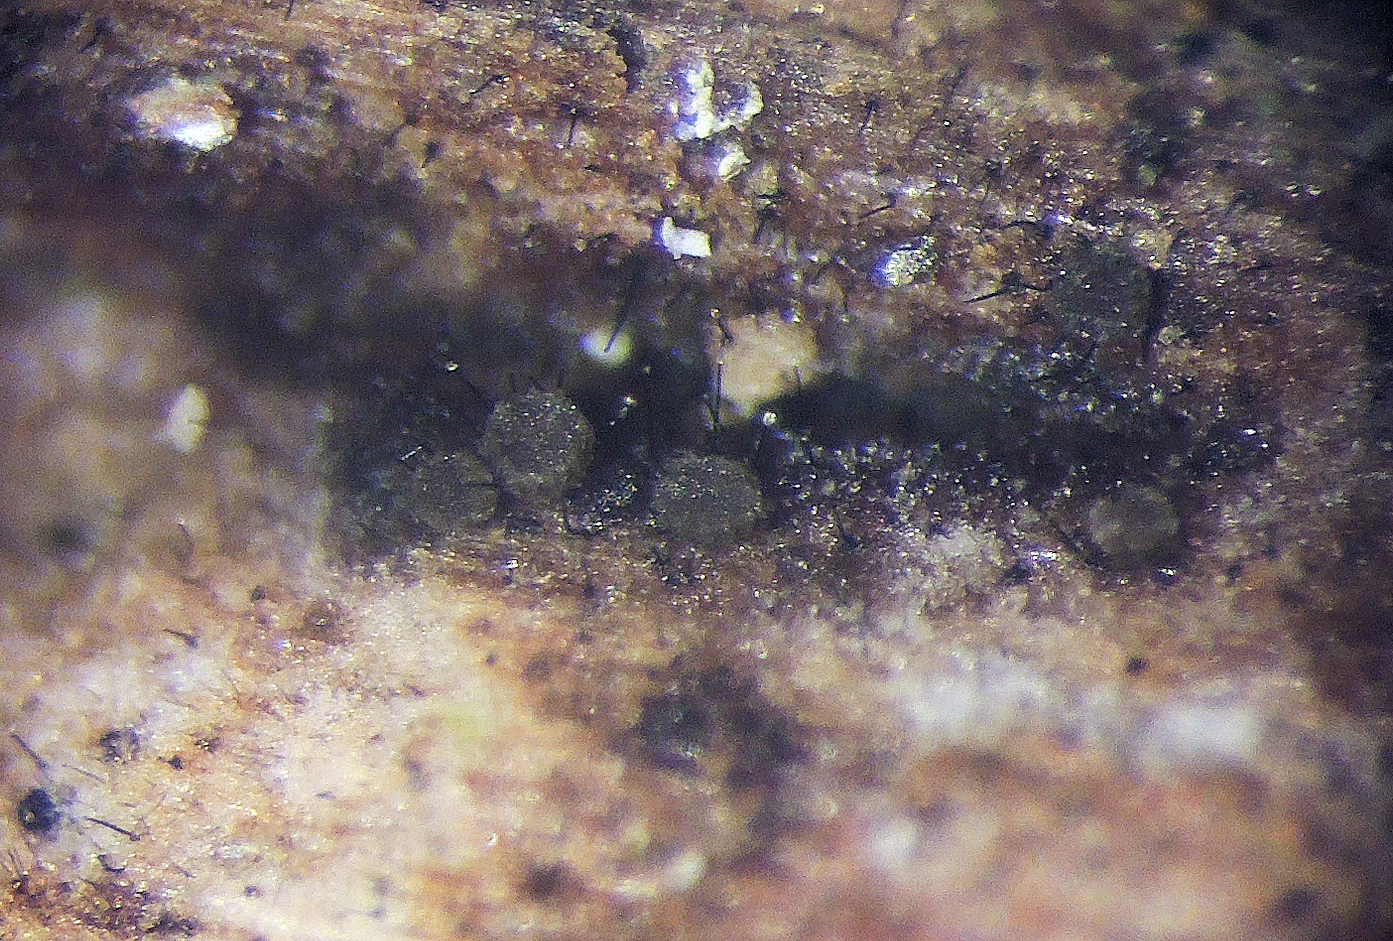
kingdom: Fungi
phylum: Ascomycota
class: Leotiomycetes
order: Helotiales
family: Hyaloscyphaceae
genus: Dematioscypha
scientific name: Dematioscypha olivacea
